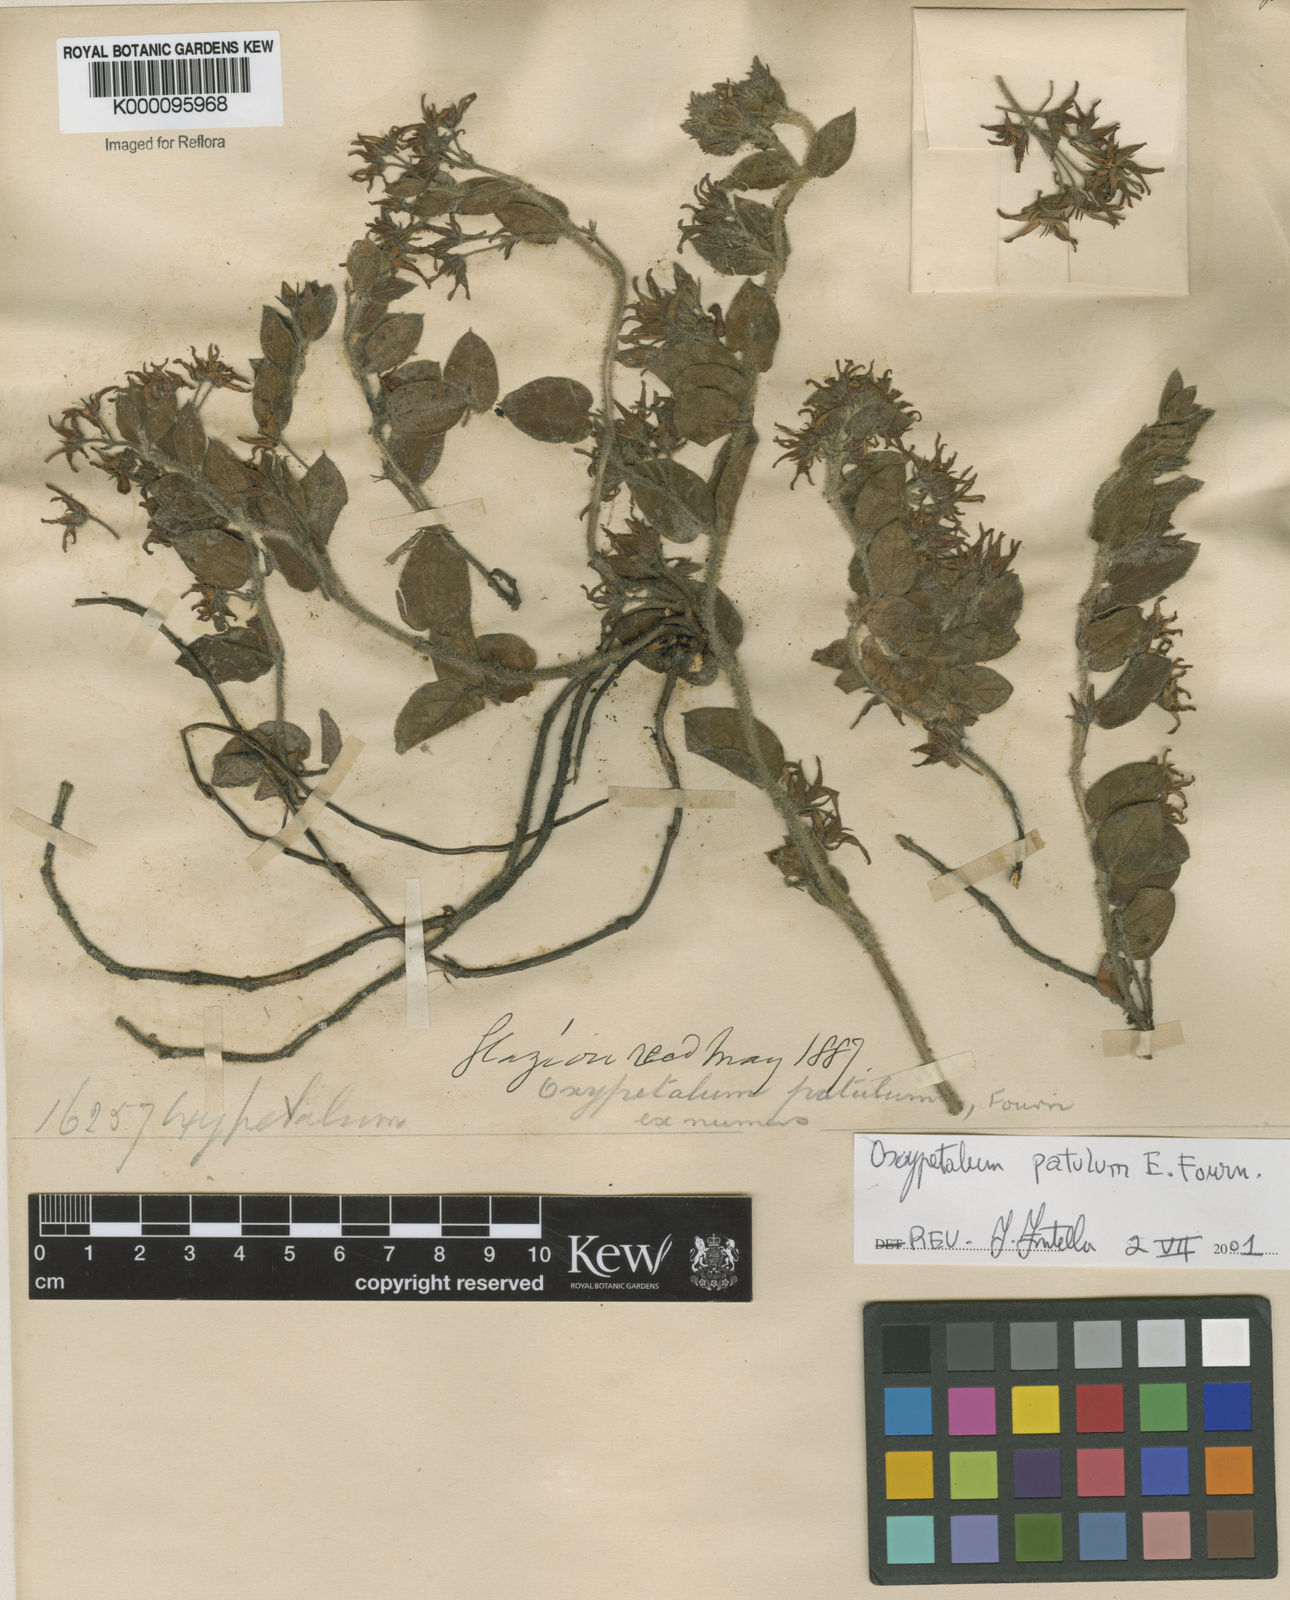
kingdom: Plantae
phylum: Tracheophyta
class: Magnoliopsida
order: Gentianales
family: Apocynaceae
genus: Oxypetalum
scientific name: Oxypetalum patulum
